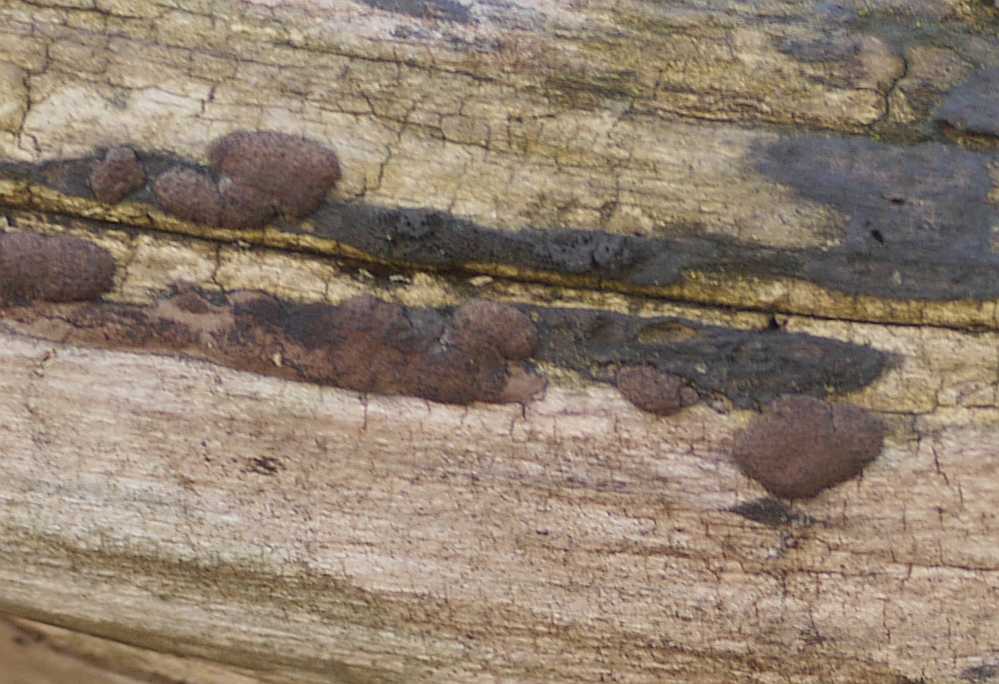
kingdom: Fungi
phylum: Ascomycota
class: Sordariomycetes
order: Xylariales
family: Diatrypaceae
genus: Diatrype
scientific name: Diatrype bullata
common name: pile-kulskorpe
